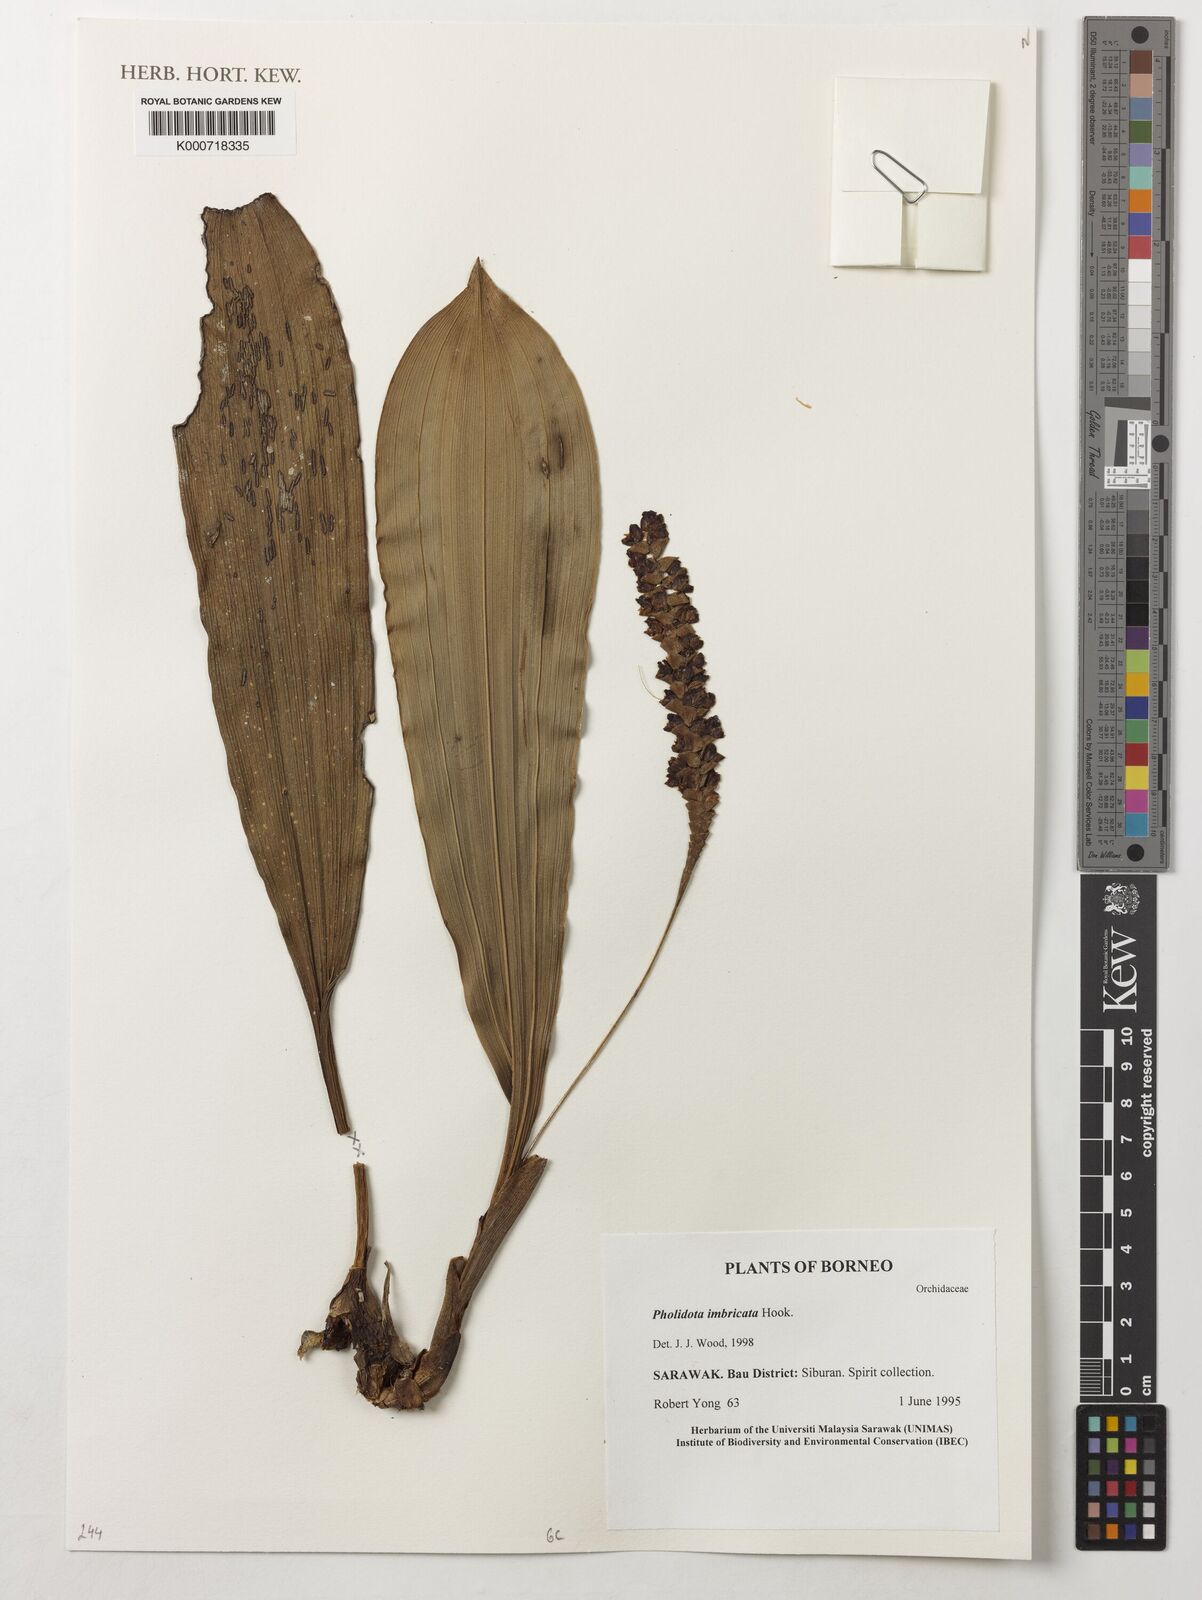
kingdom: Plantae
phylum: Tracheophyta
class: Liliopsida
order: Asparagales
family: Orchidaceae
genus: Pholidota
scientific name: Pholidota
